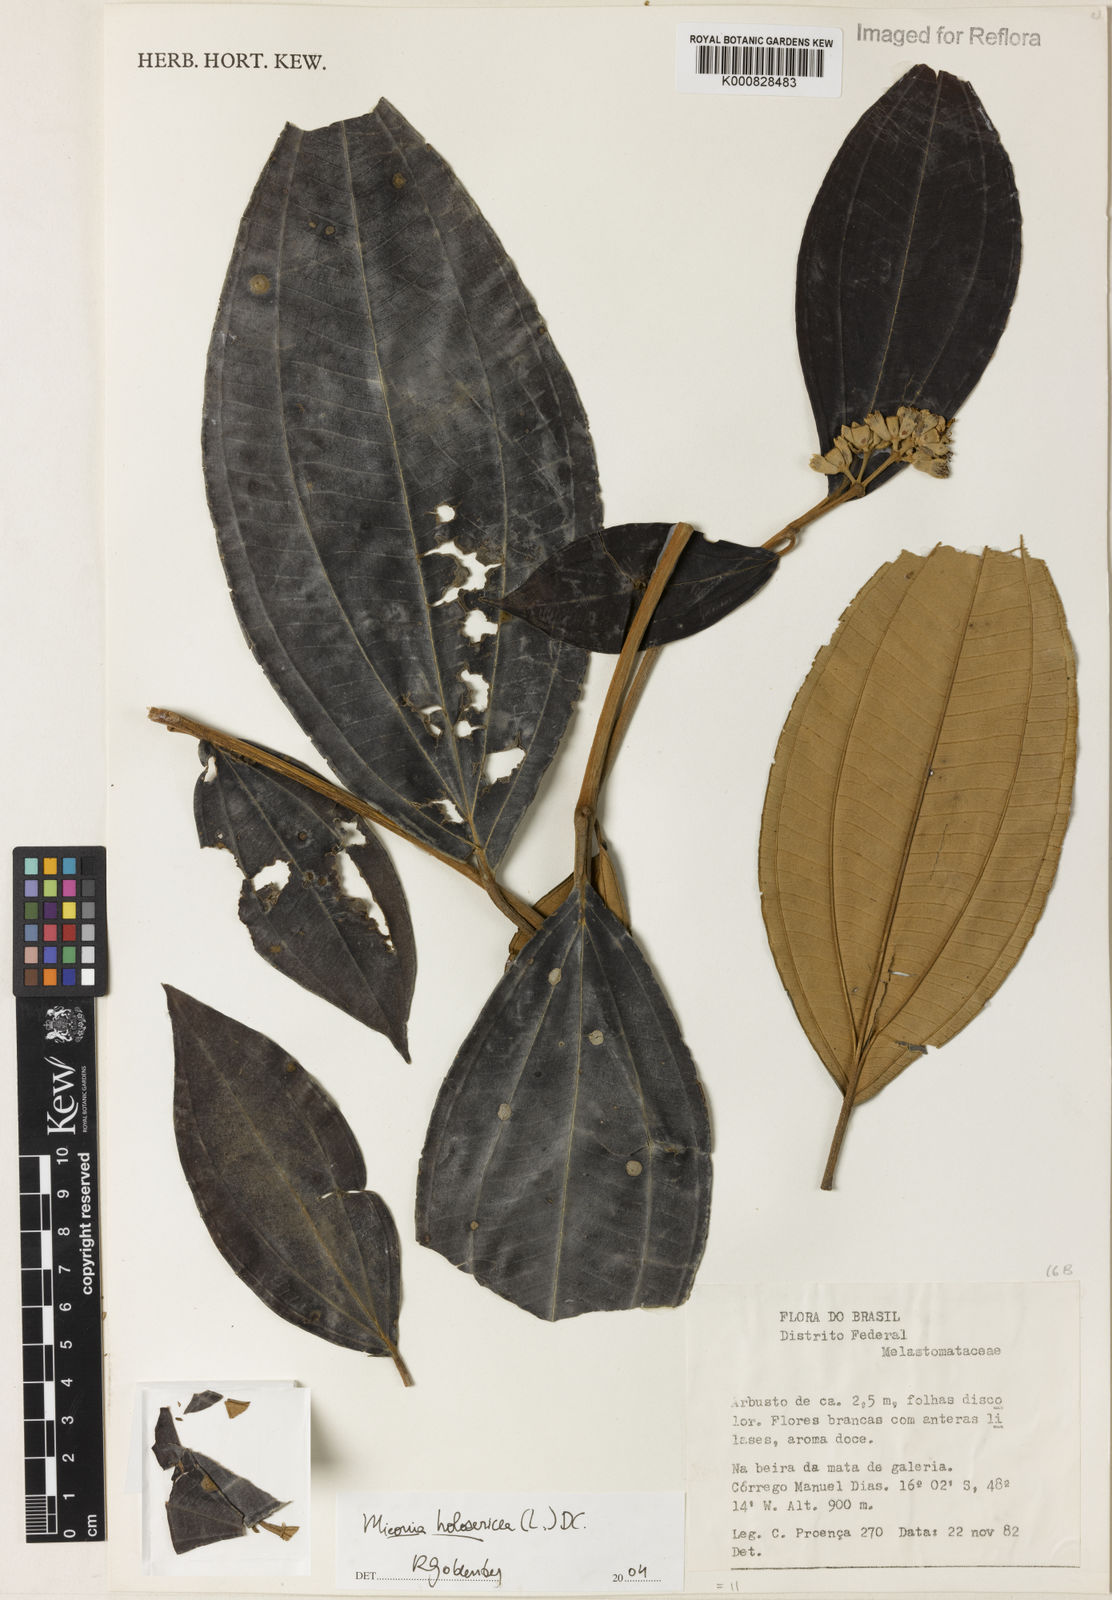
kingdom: Plantae
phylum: Tracheophyta
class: Magnoliopsida
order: Myrtales
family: Melastomataceae
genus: Miconia
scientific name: Miconia holosericea
